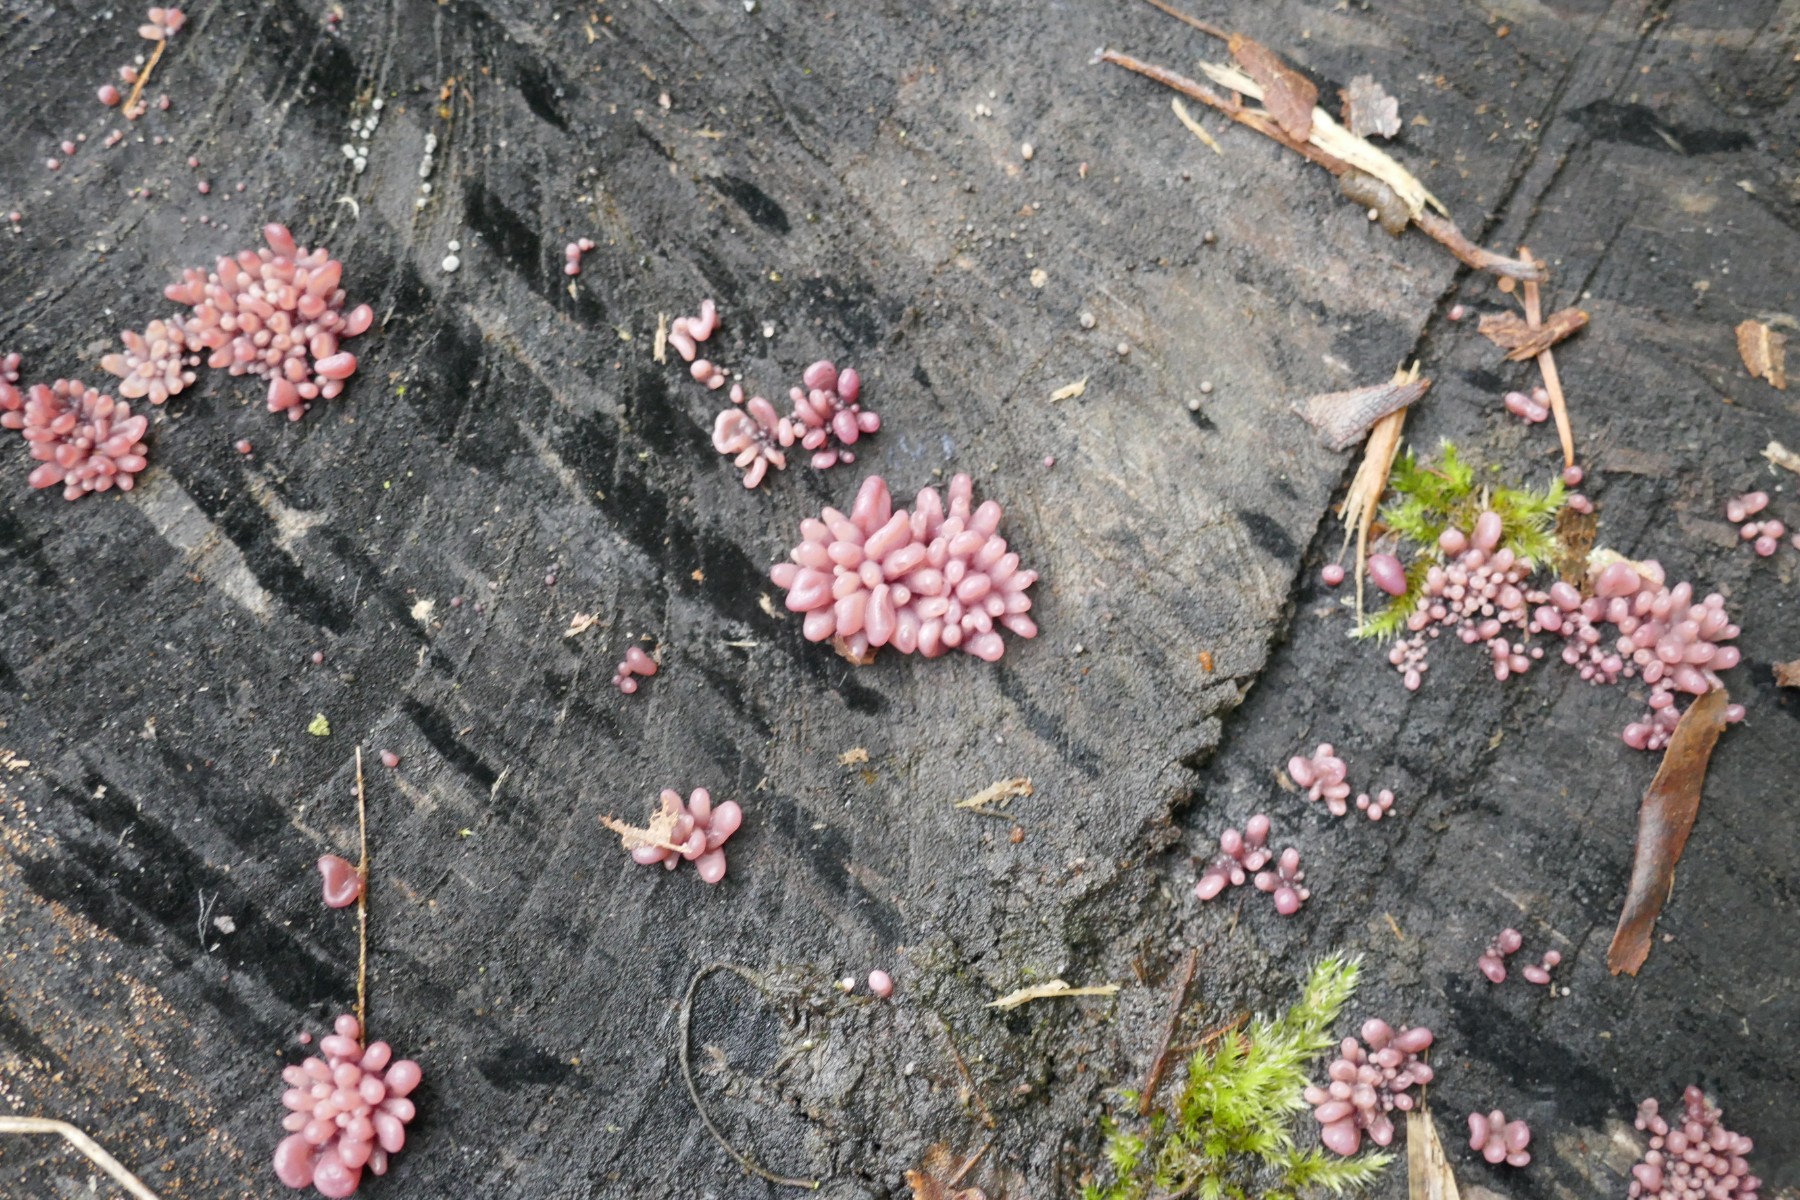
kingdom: Fungi
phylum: Ascomycota
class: Leotiomycetes
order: Helotiales
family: Gelatinodiscaceae
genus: Ascocoryne
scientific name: Ascocoryne sarcoides
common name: rødlilla sejskive
